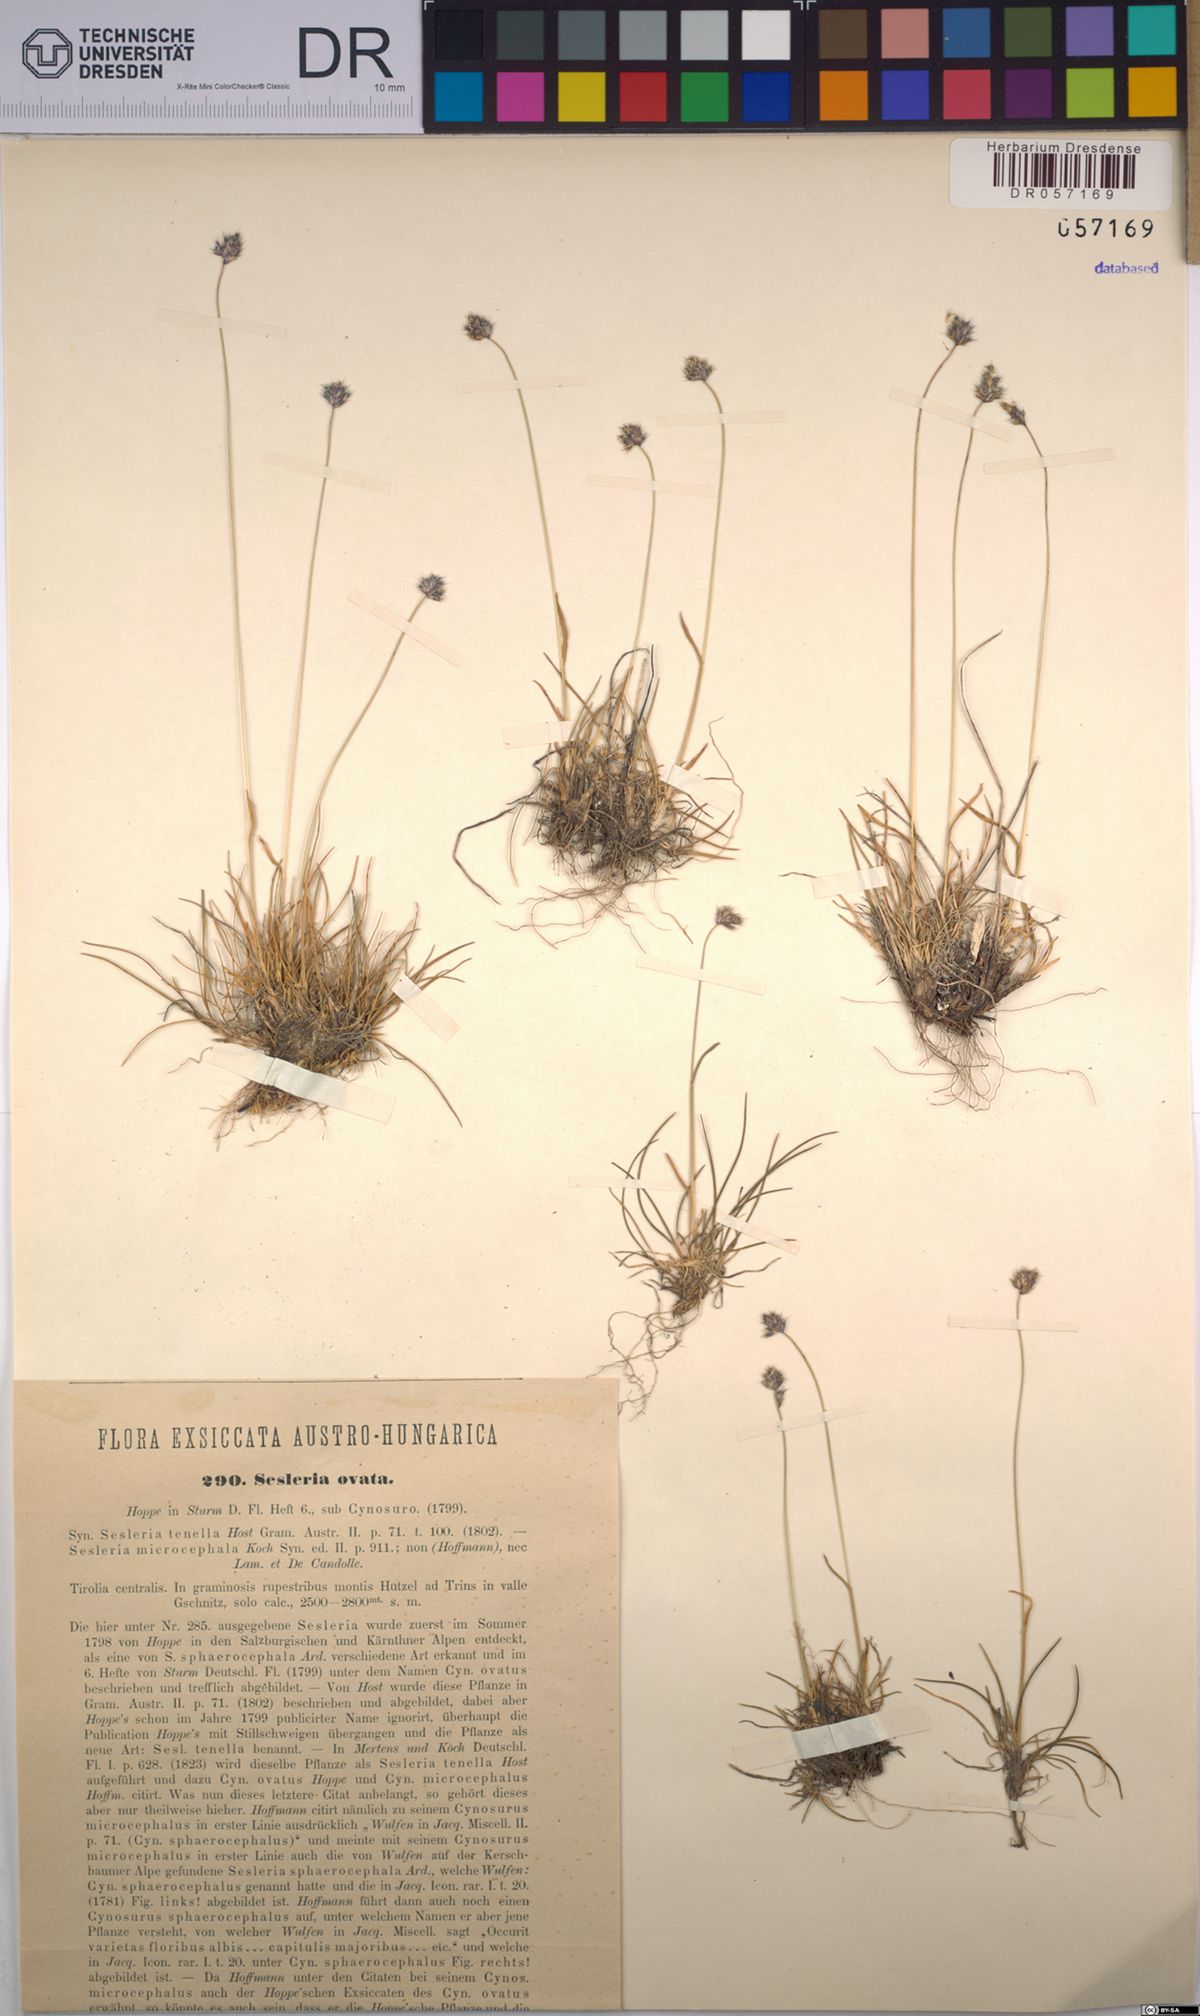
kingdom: Plantae
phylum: Tracheophyta
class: Liliopsida
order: Poales
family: Poaceae
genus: Psilathera
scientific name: Psilathera ovata
